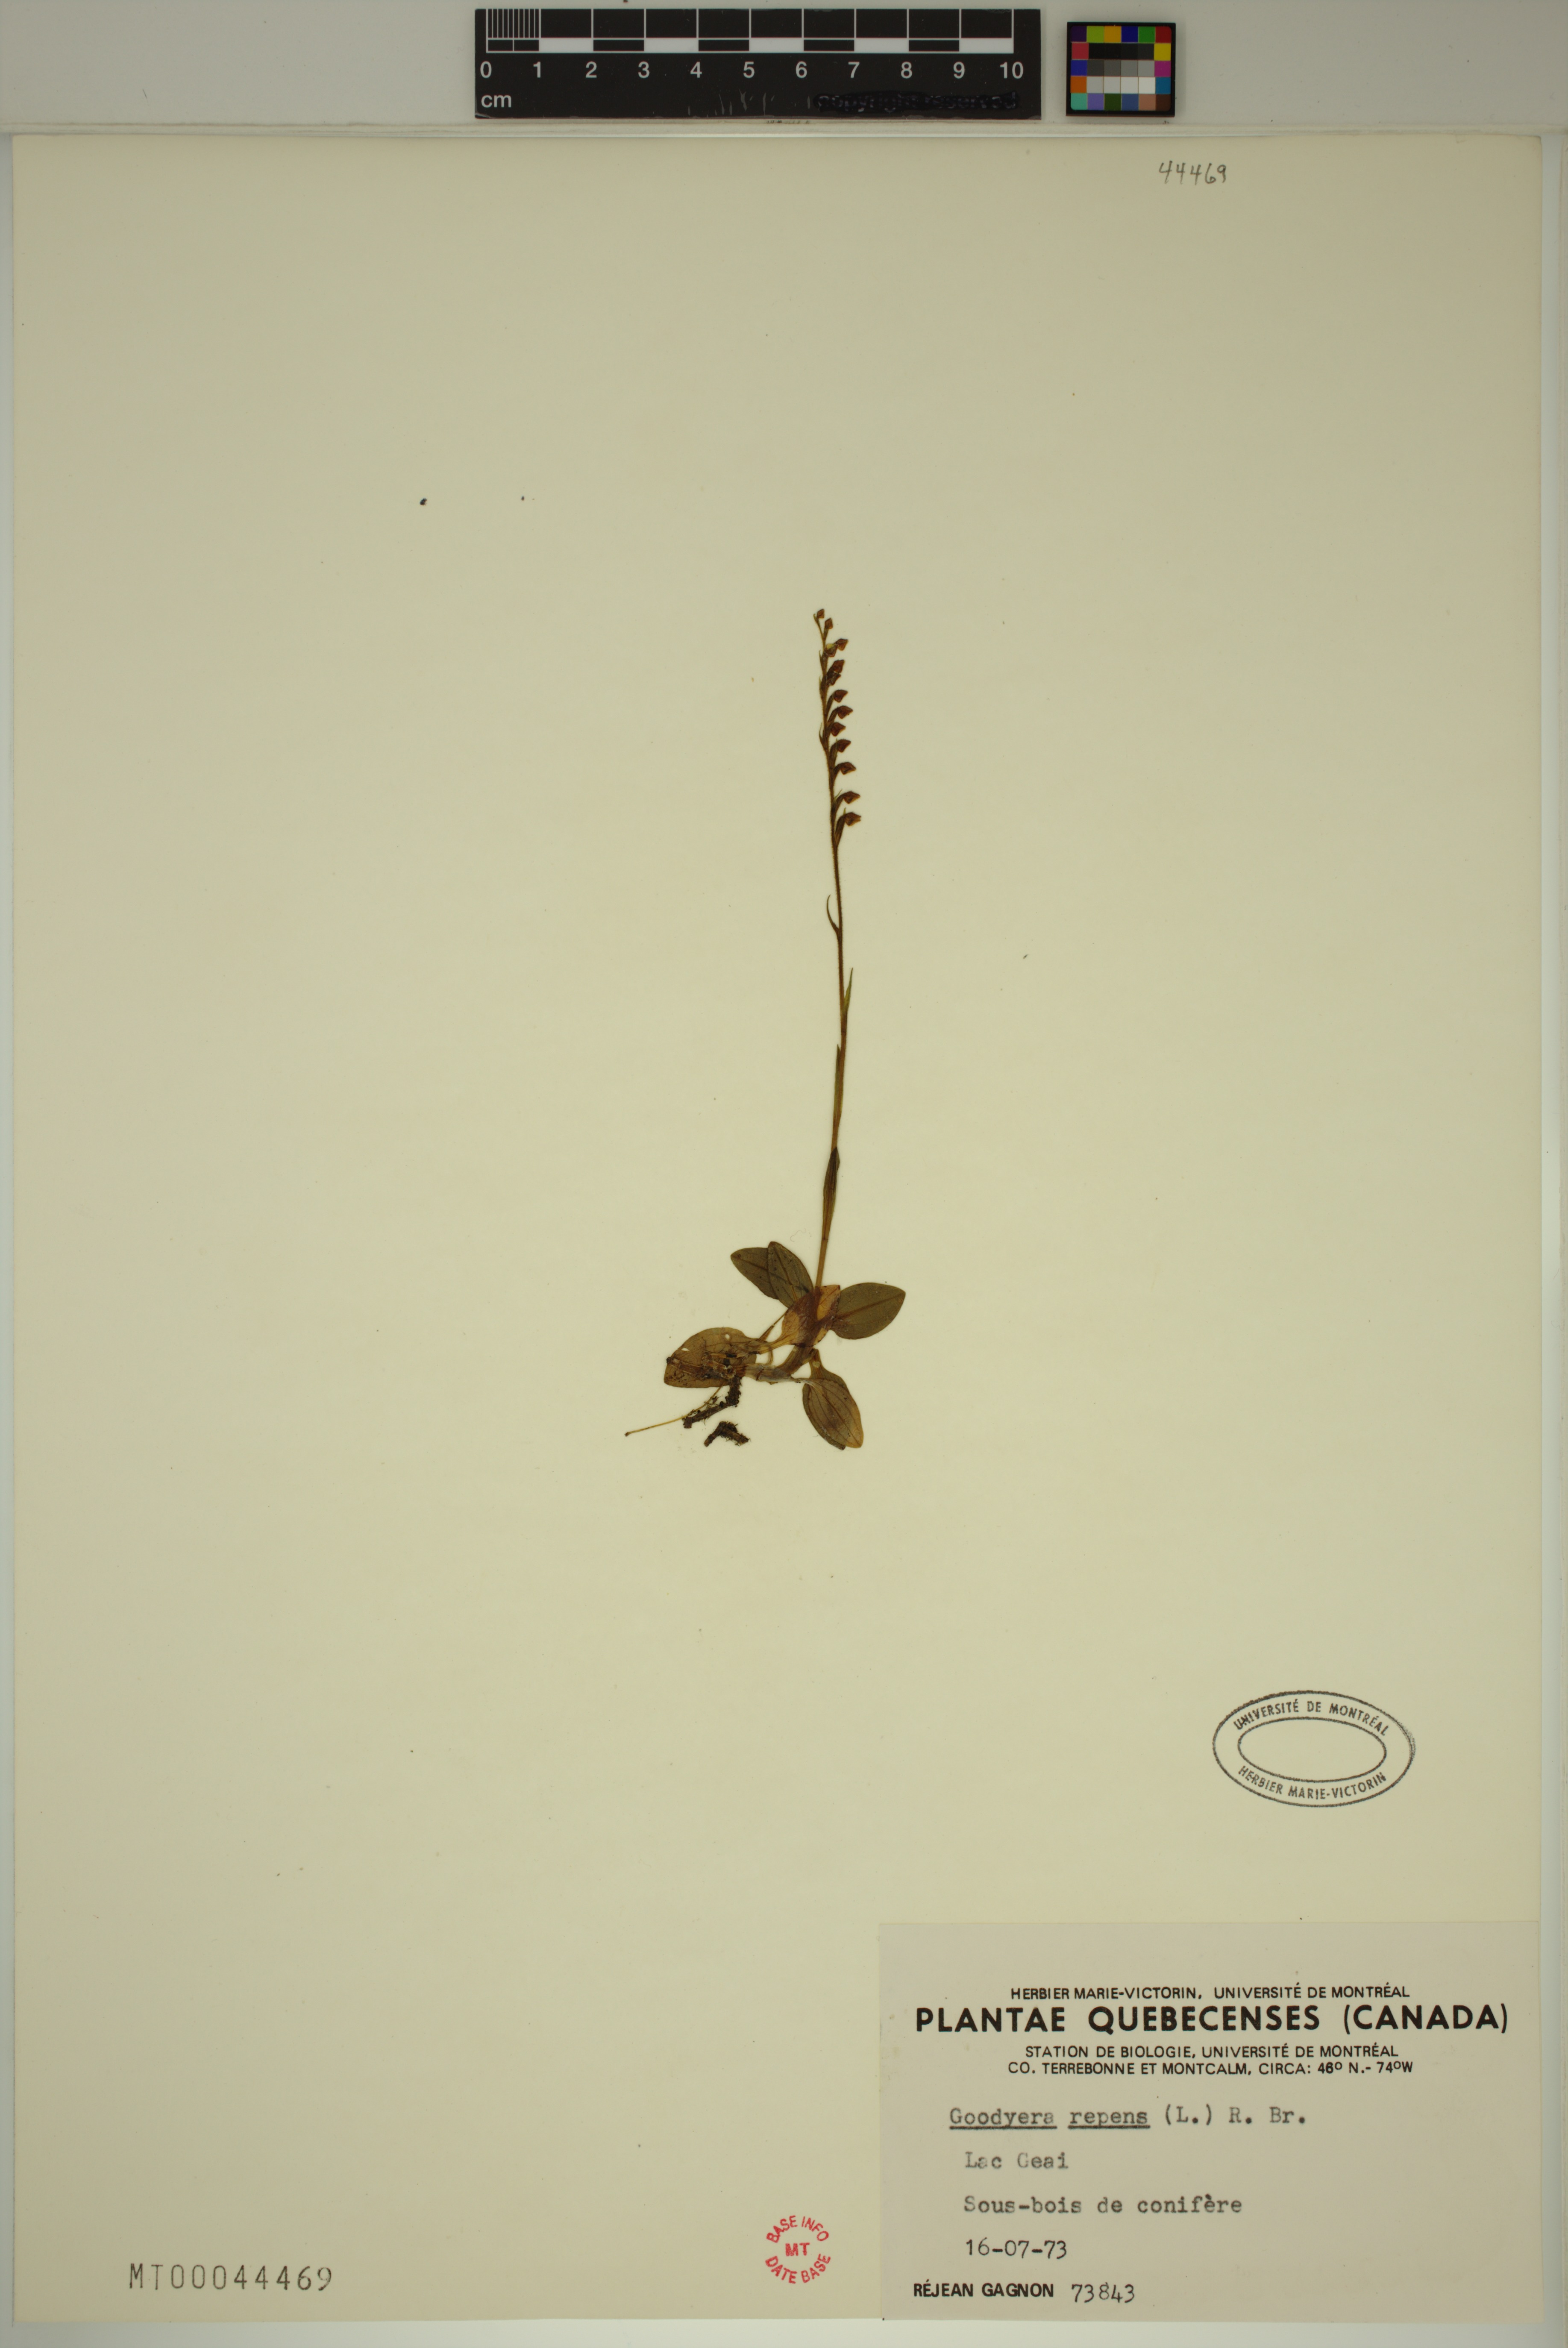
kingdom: Plantae
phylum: Tracheophyta
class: Liliopsida
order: Asparagales
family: Orchidaceae
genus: Goodyera
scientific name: Goodyera repens
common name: Creeping lady's-tresses
